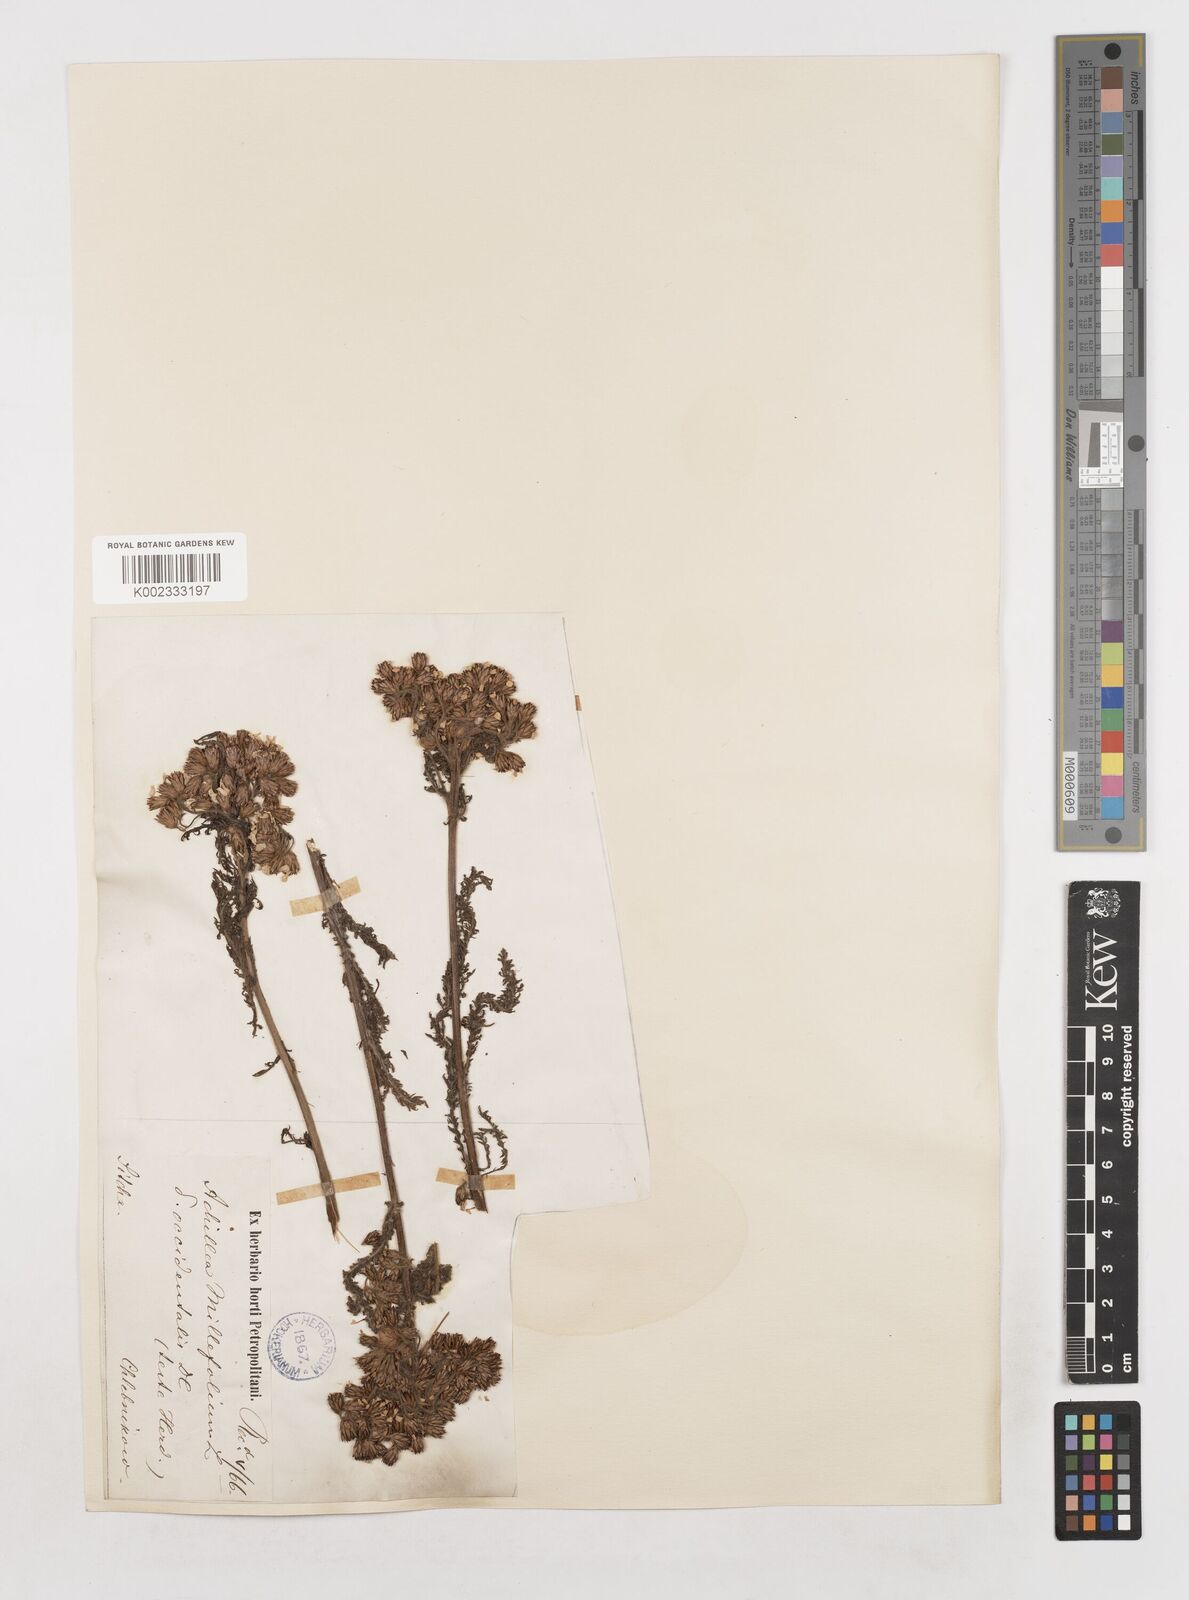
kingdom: Plantae
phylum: Tracheophyta
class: Magnoliopsida
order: Asterales
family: Asteraceae
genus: Achillea
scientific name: Achillea millefolium
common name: Yarrow
